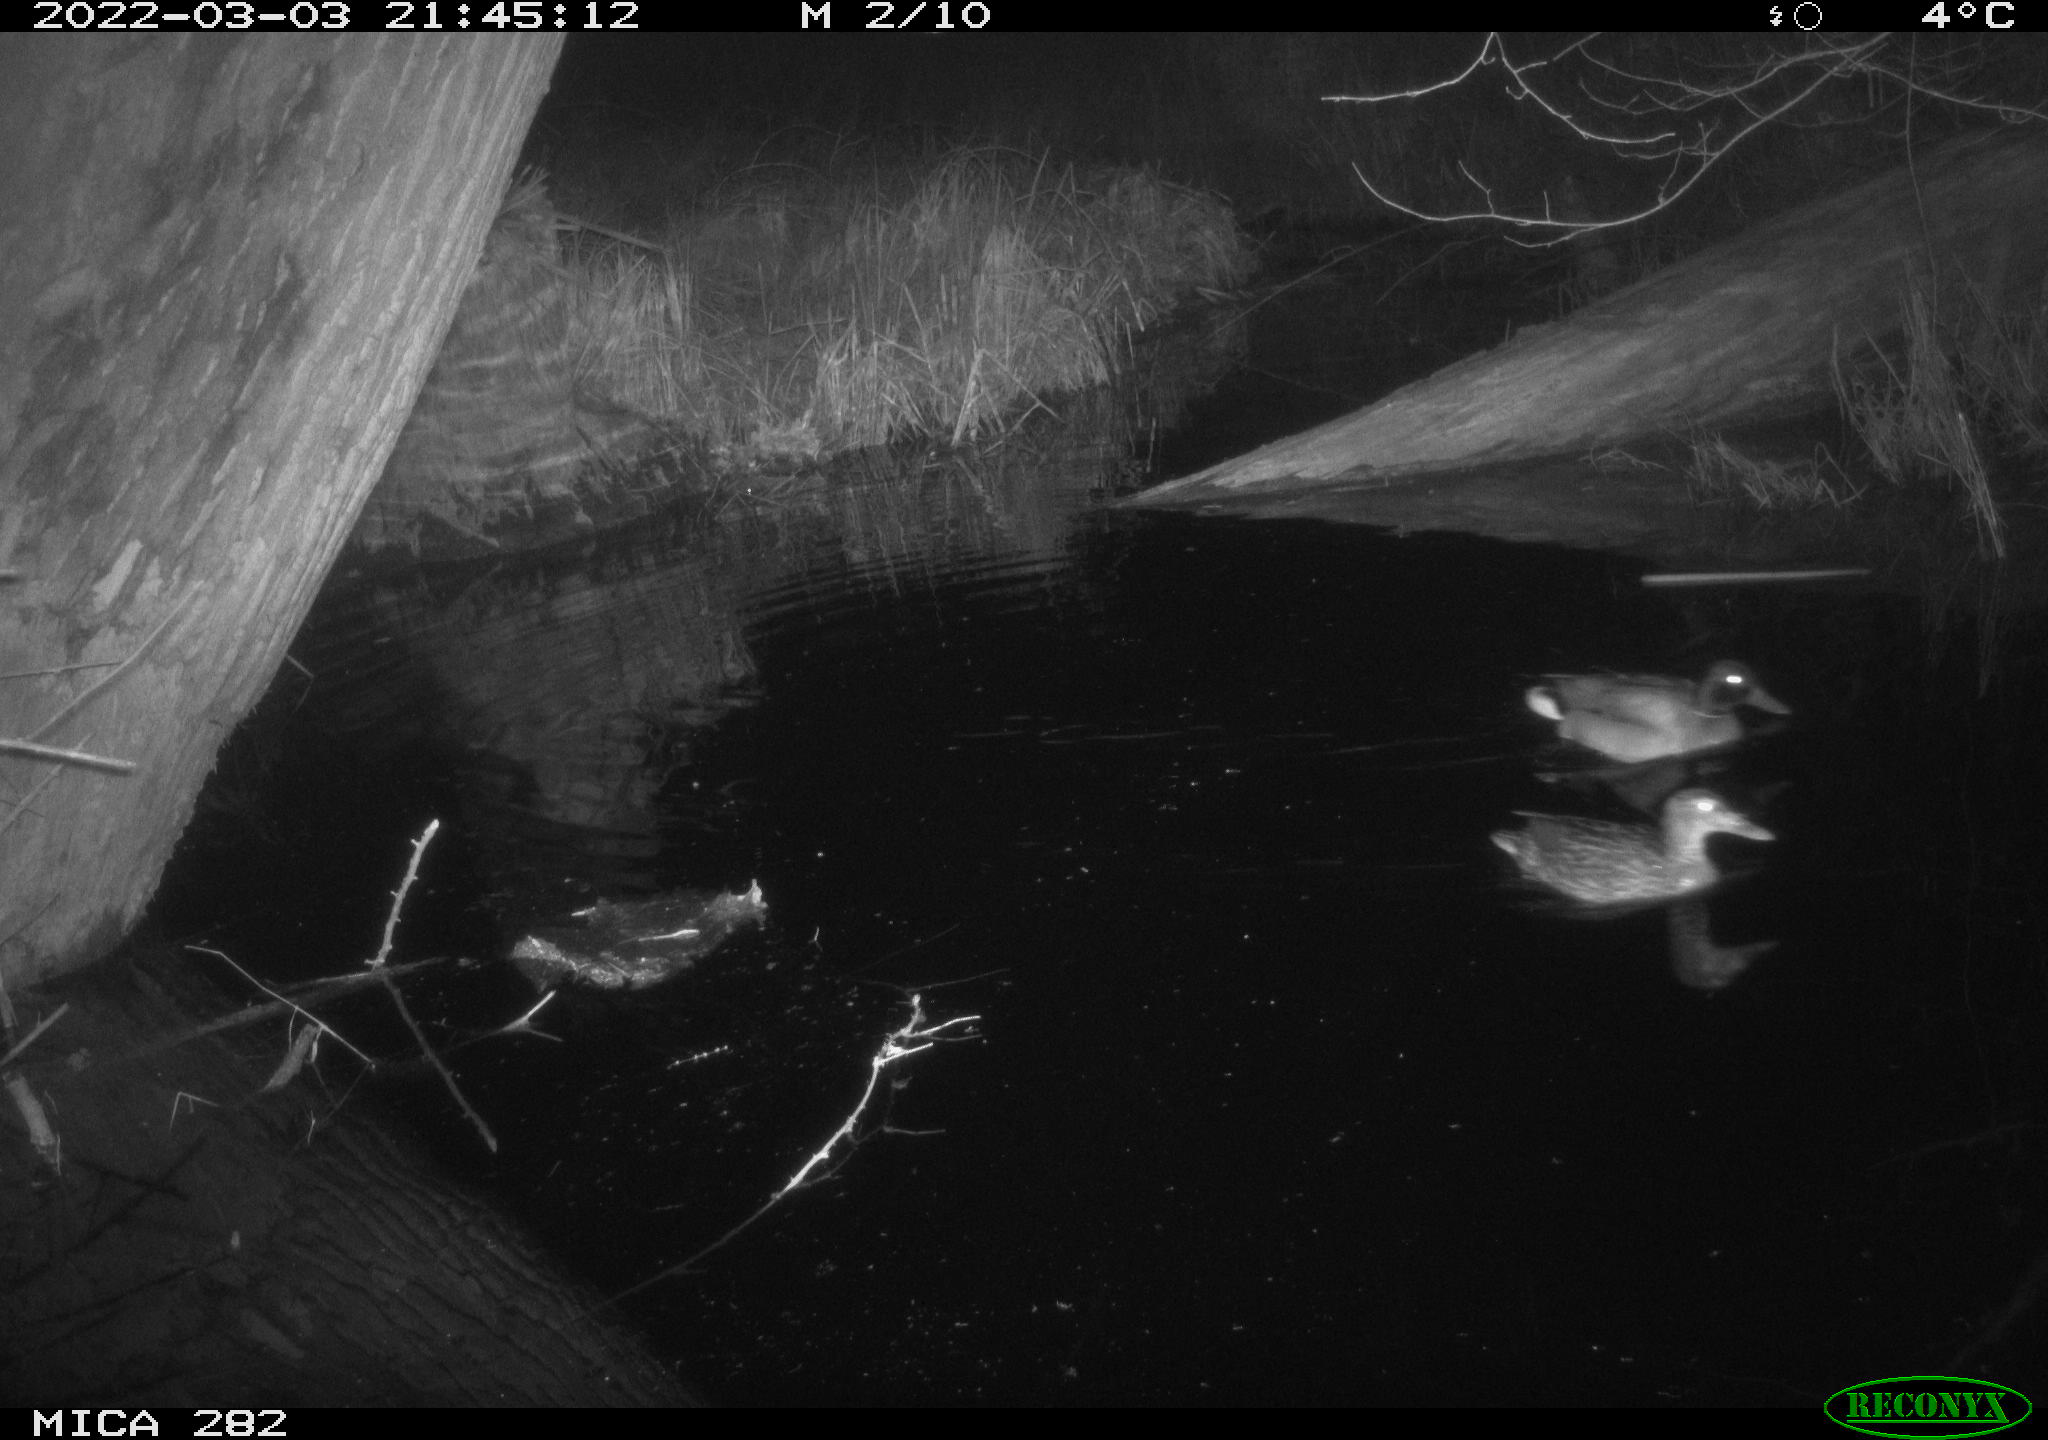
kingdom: Animalia
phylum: Chordata
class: Aves
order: Anseriformes
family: Anatidae
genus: Anas
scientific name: Anas platyrhynchos
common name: Mallard
